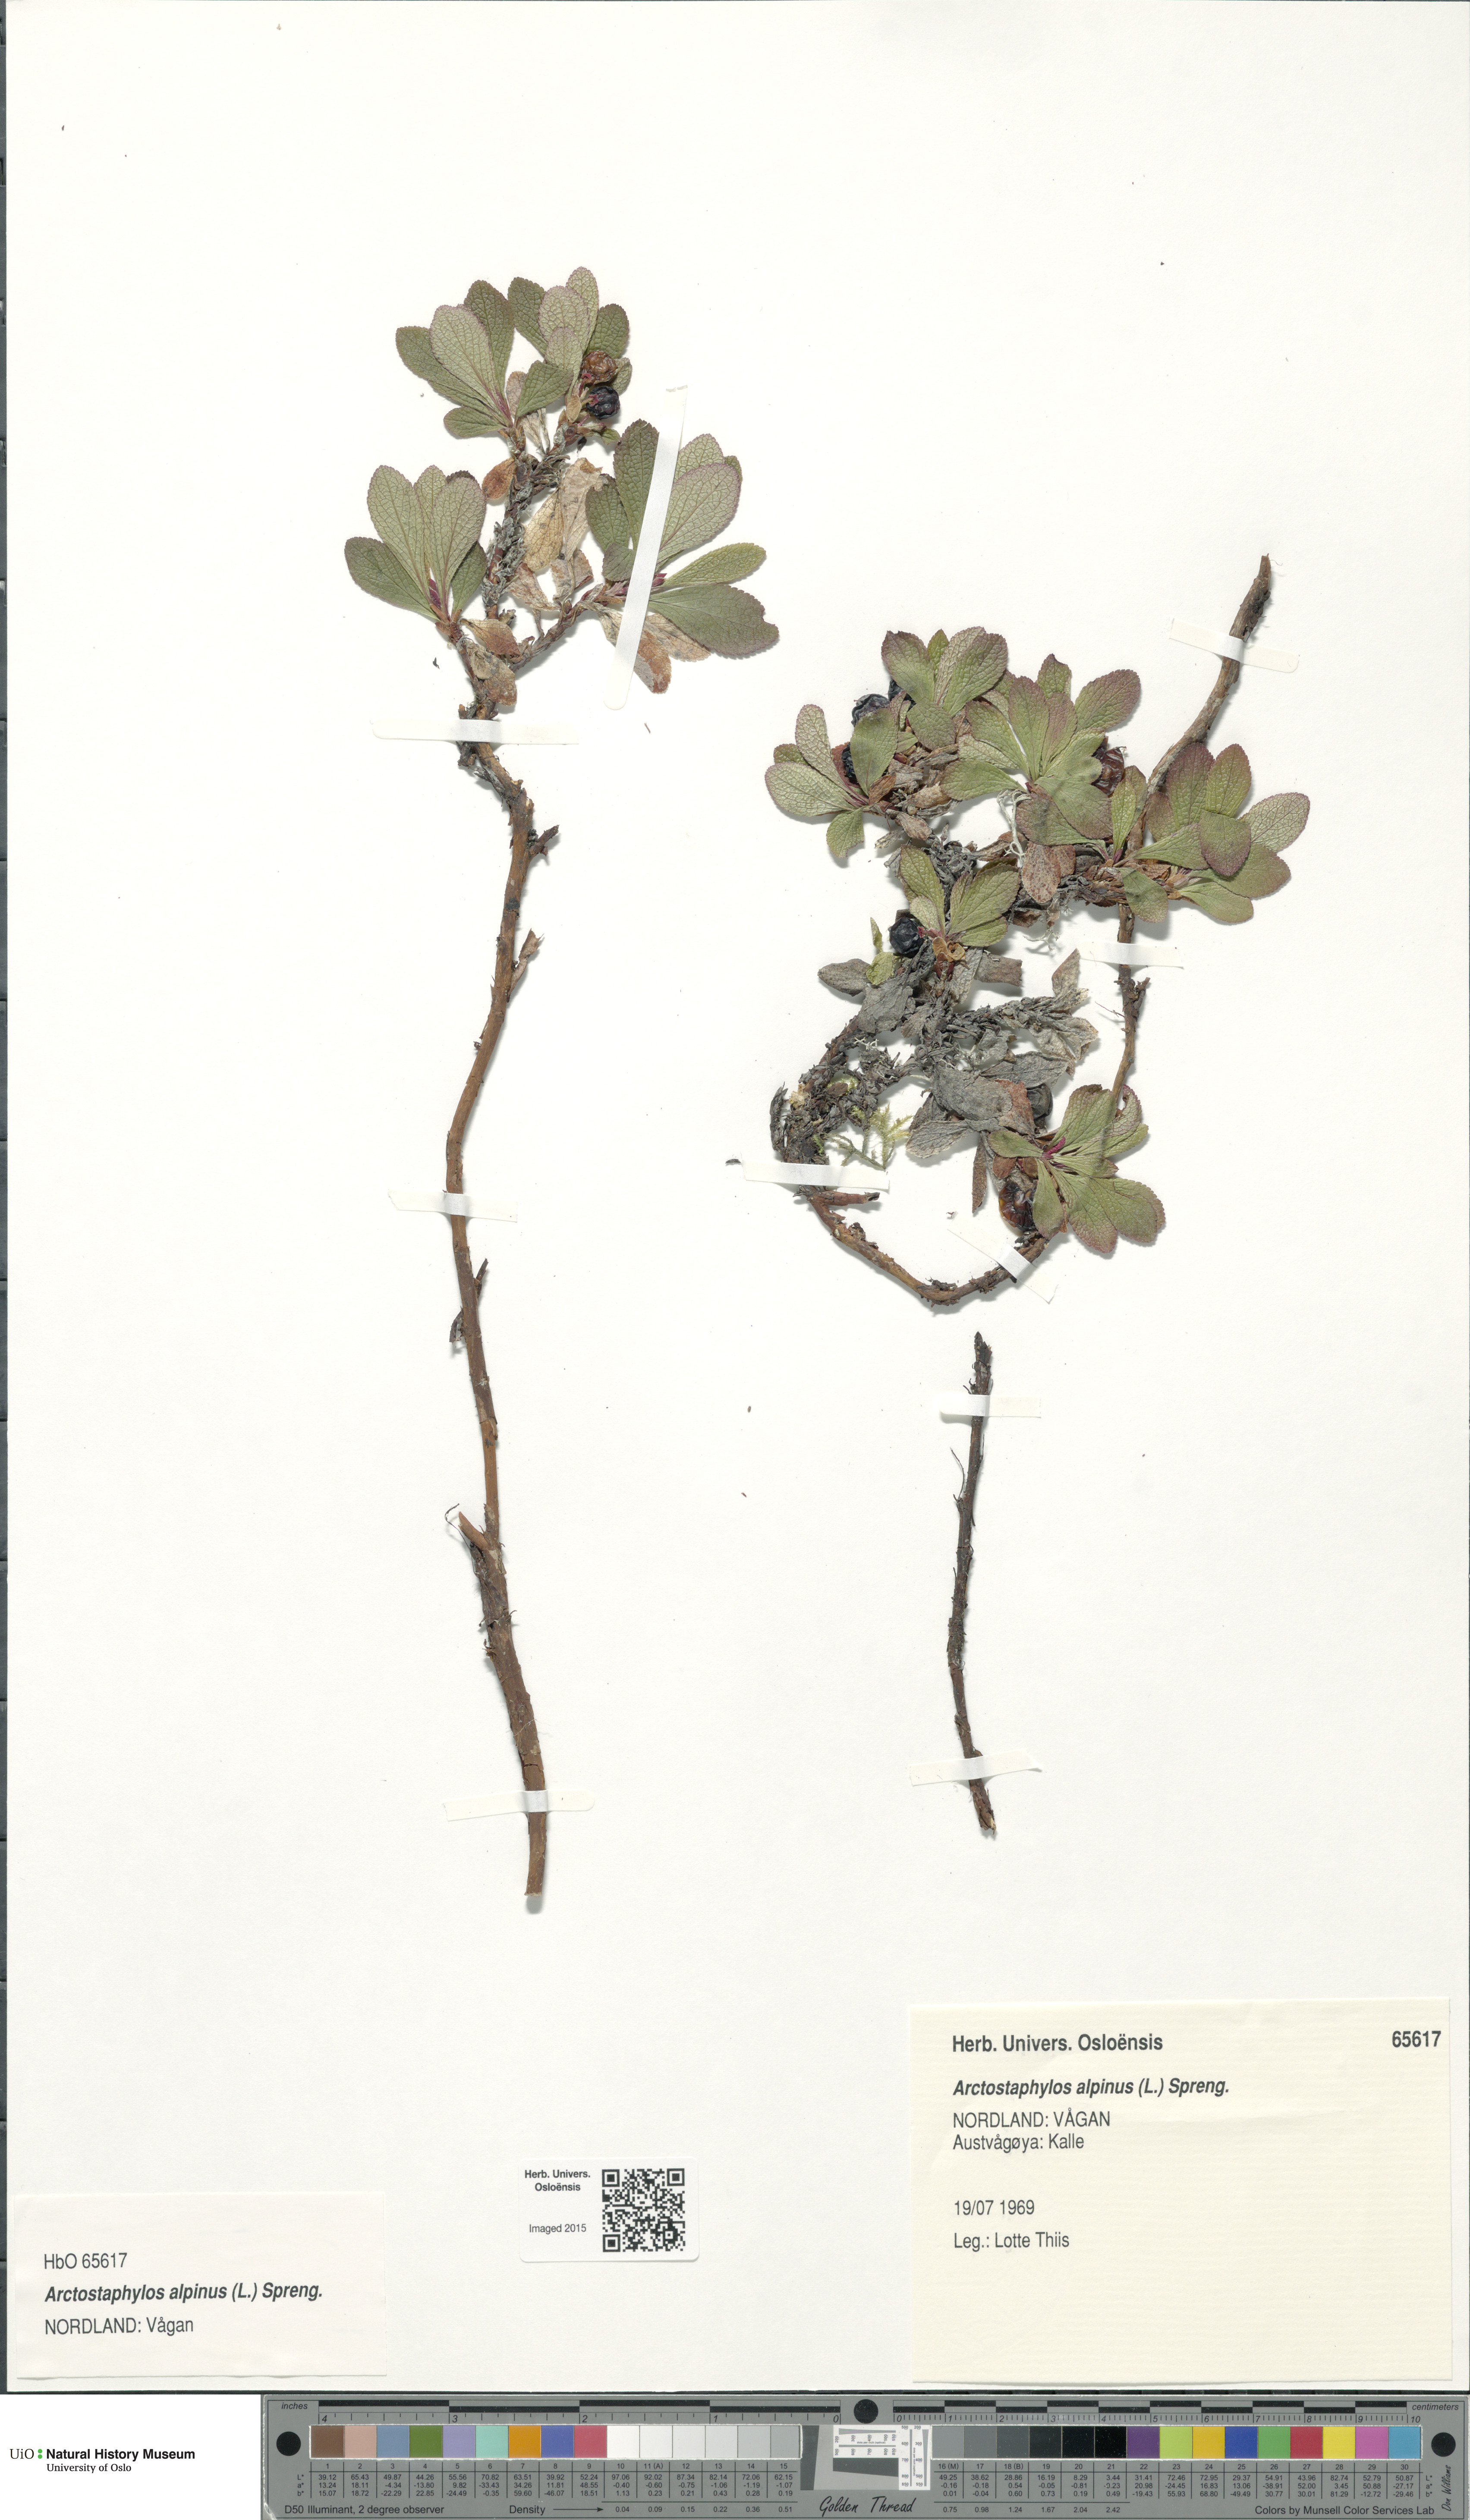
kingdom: Plantae
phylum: Tracheophyta
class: Magnoliopsida
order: Ericales
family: Ericaceae
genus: Arctostaphylos
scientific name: Arctostaphylos alpinus
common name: Alpine bearberry
